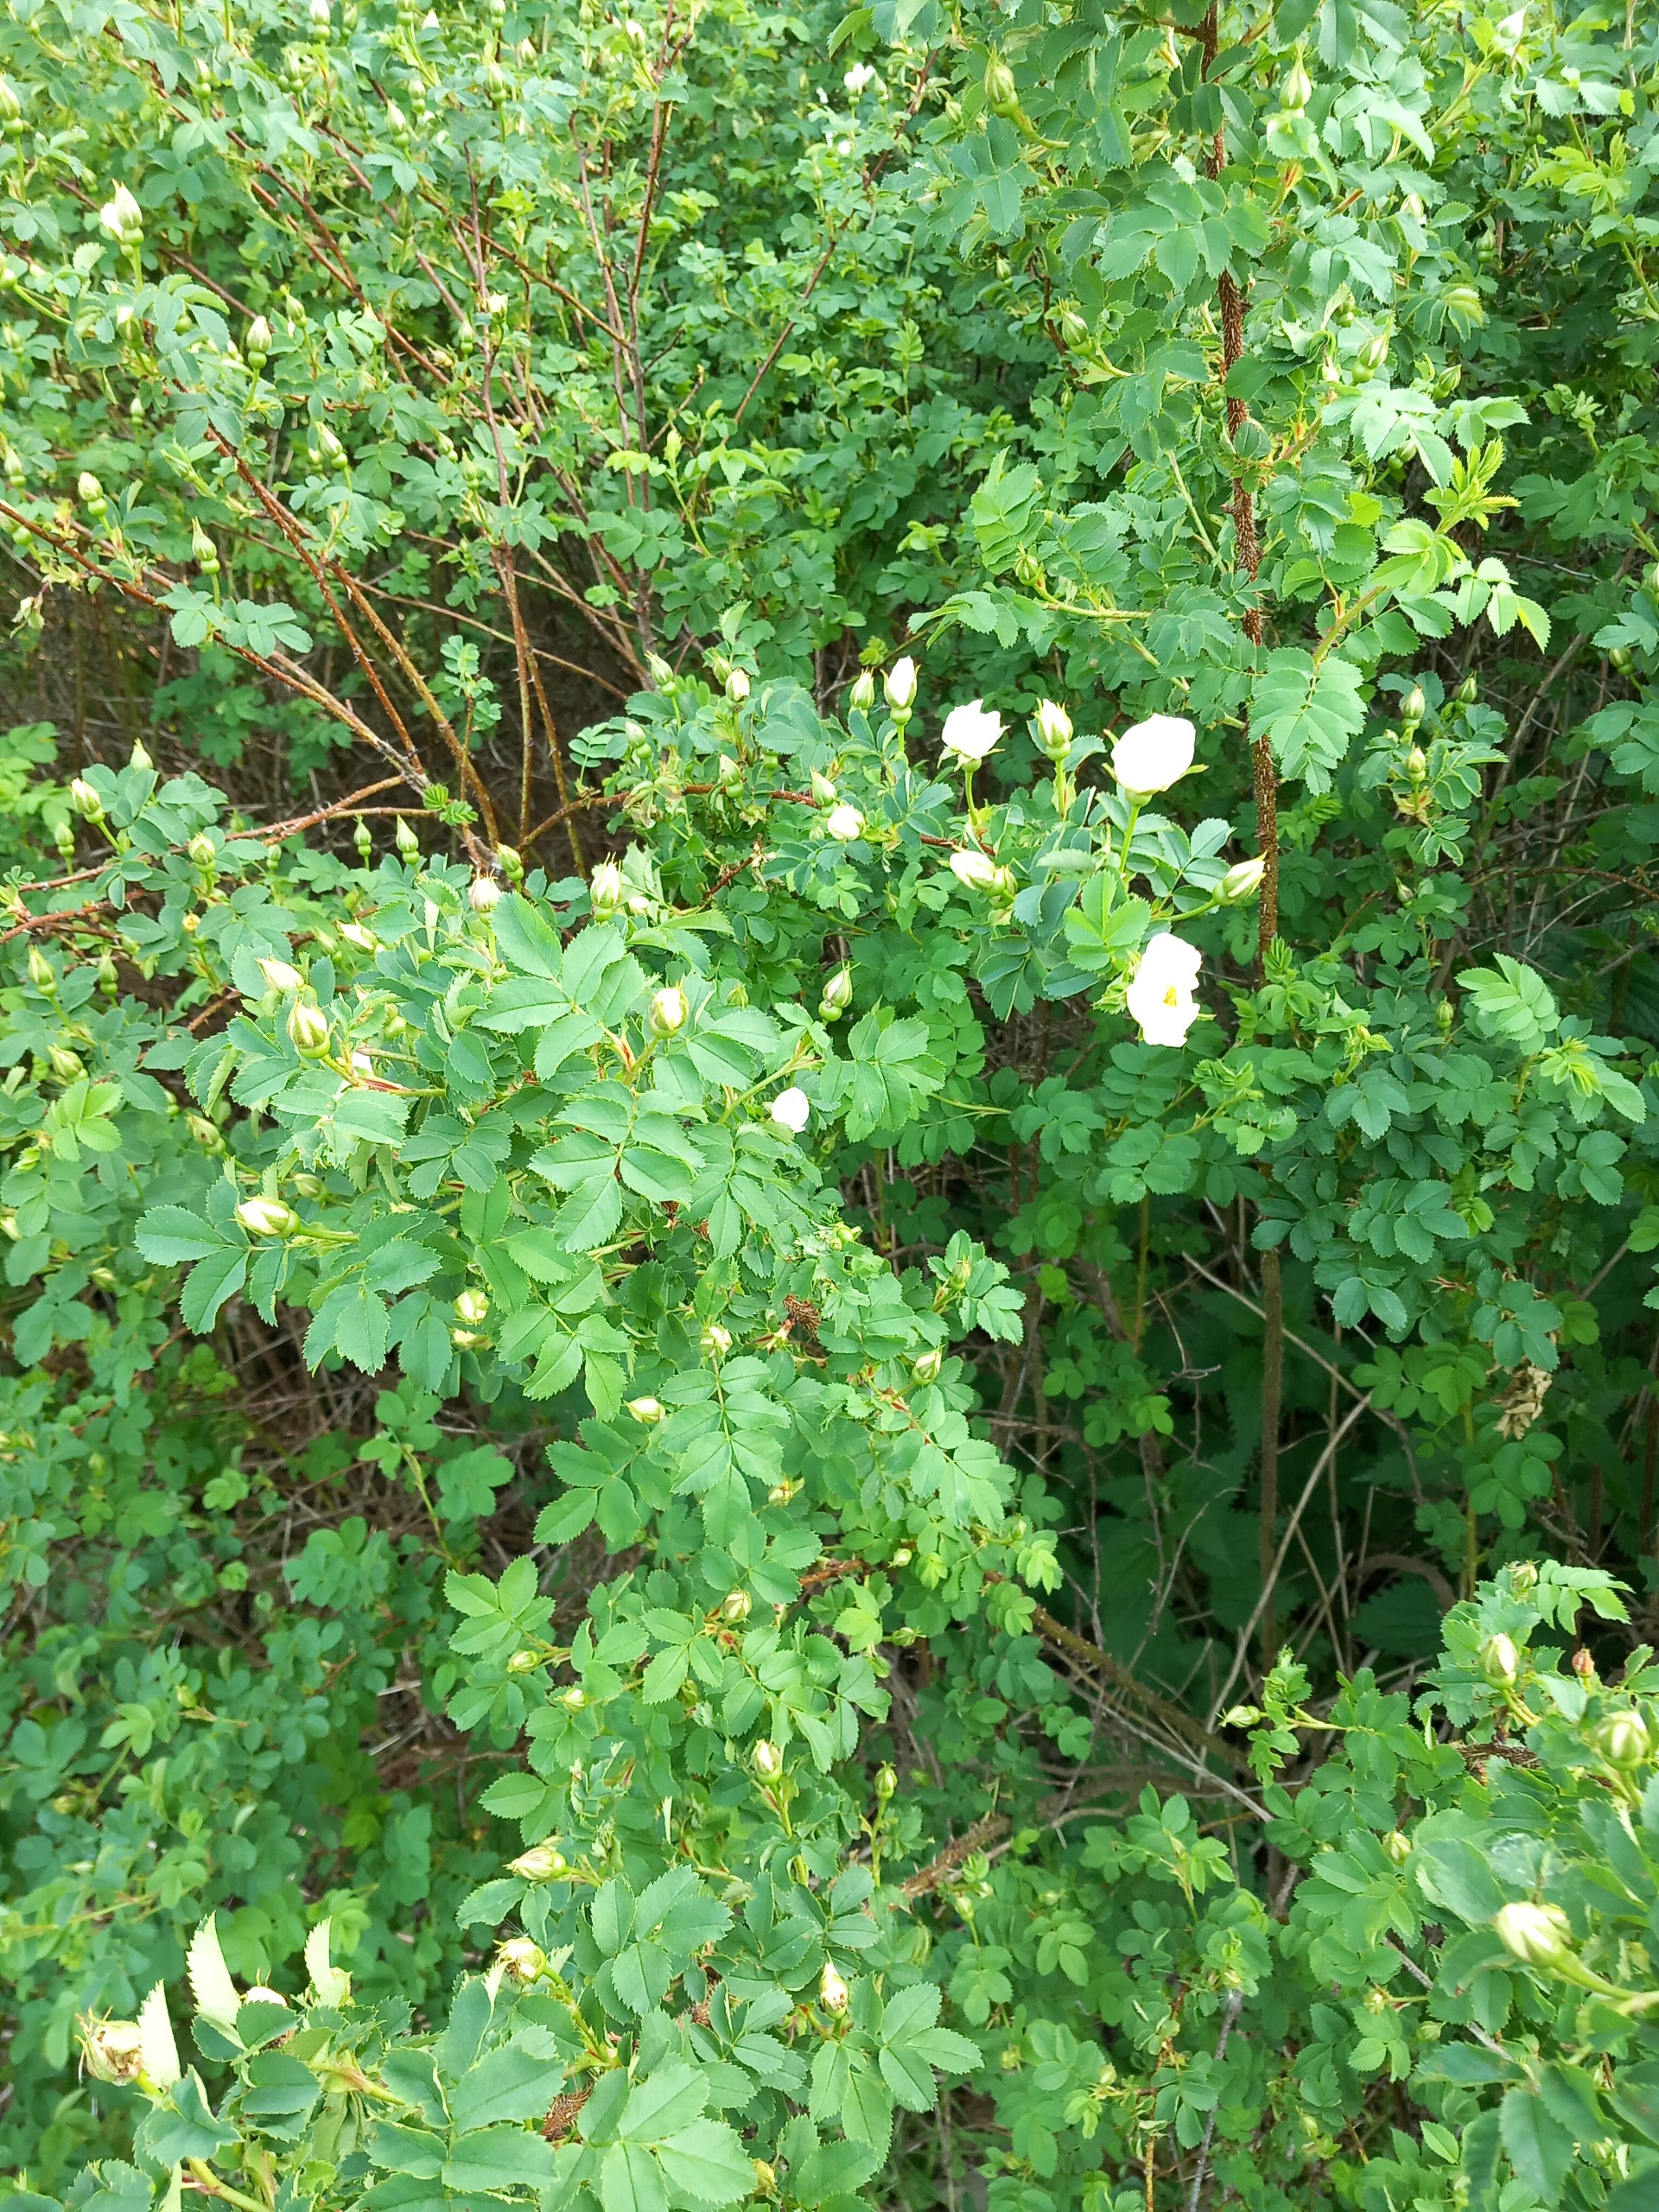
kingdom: Plantae
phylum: Tracheophyta
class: Magnoliopsida
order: Rosales
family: Rosaceae
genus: Rosa
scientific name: Rosa rugosa
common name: Rynket rose
